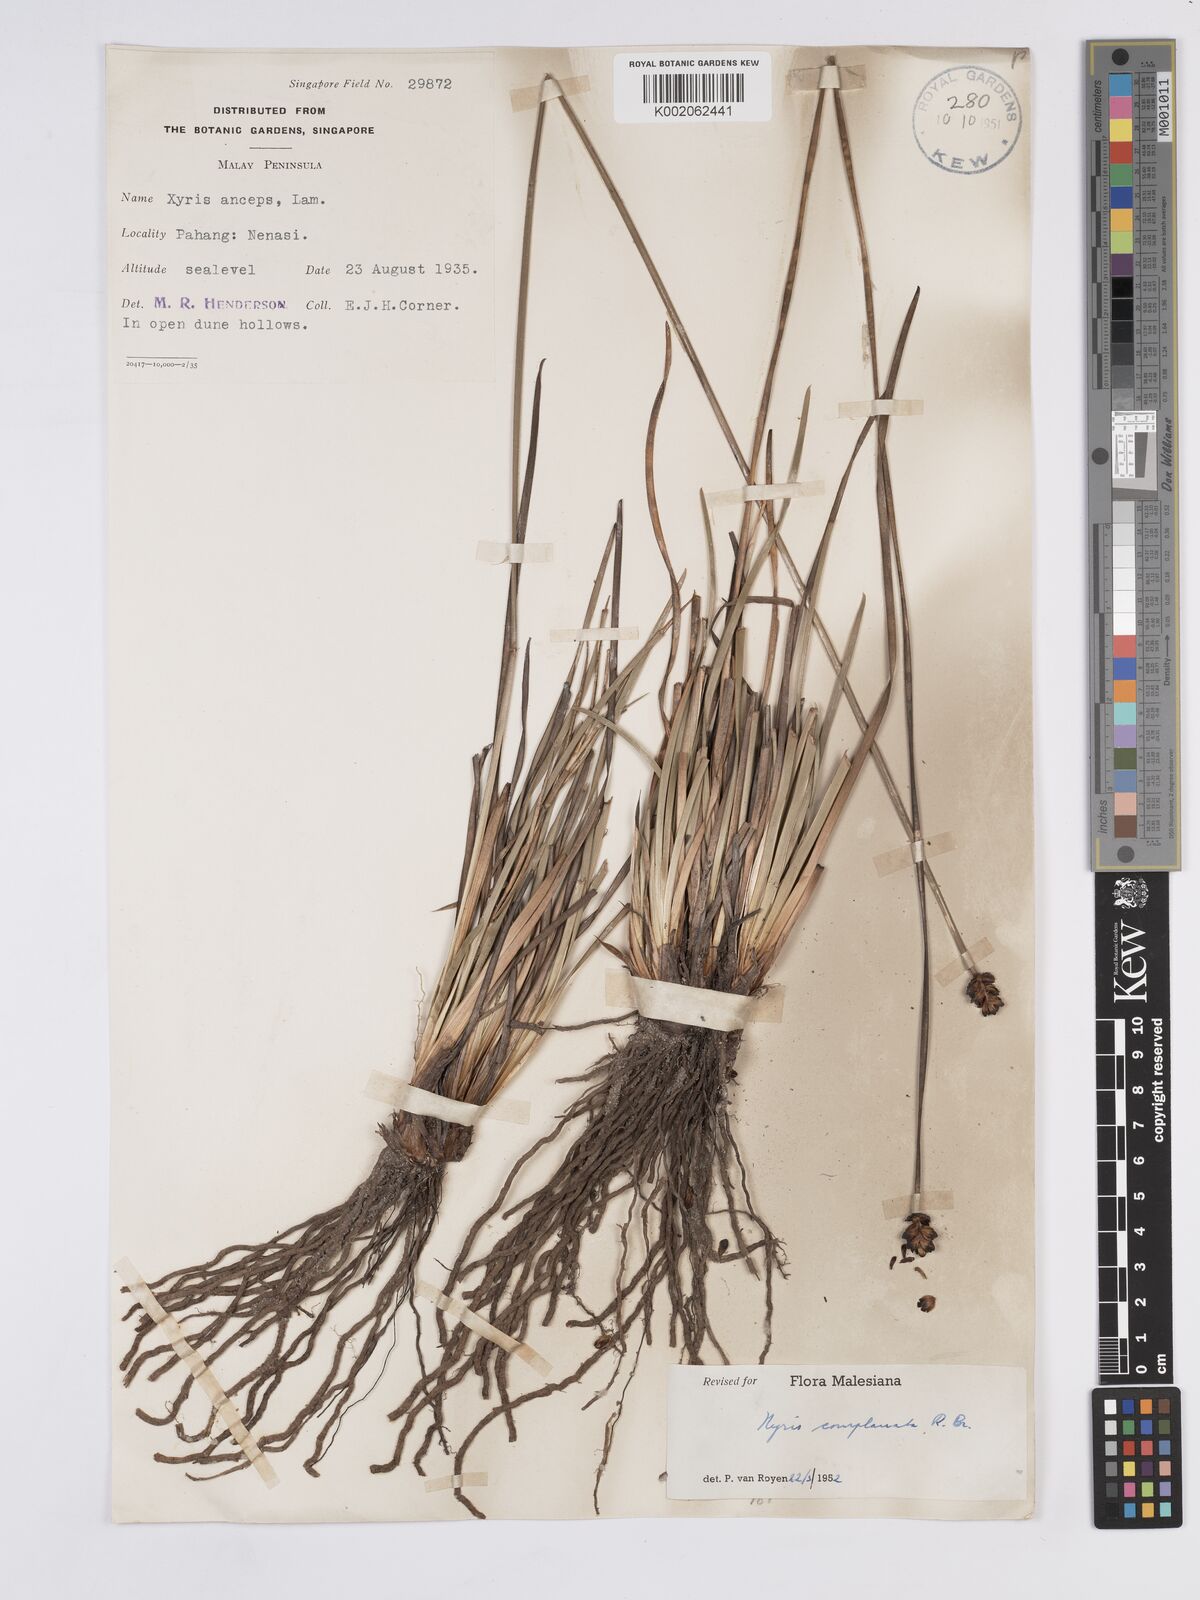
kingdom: Plantae
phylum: Tracheophyta
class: Liliopsida
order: Poales
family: Xyridaceae
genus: Xyris
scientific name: Xyris complanata
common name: Hawai'i yelloweyed grass
